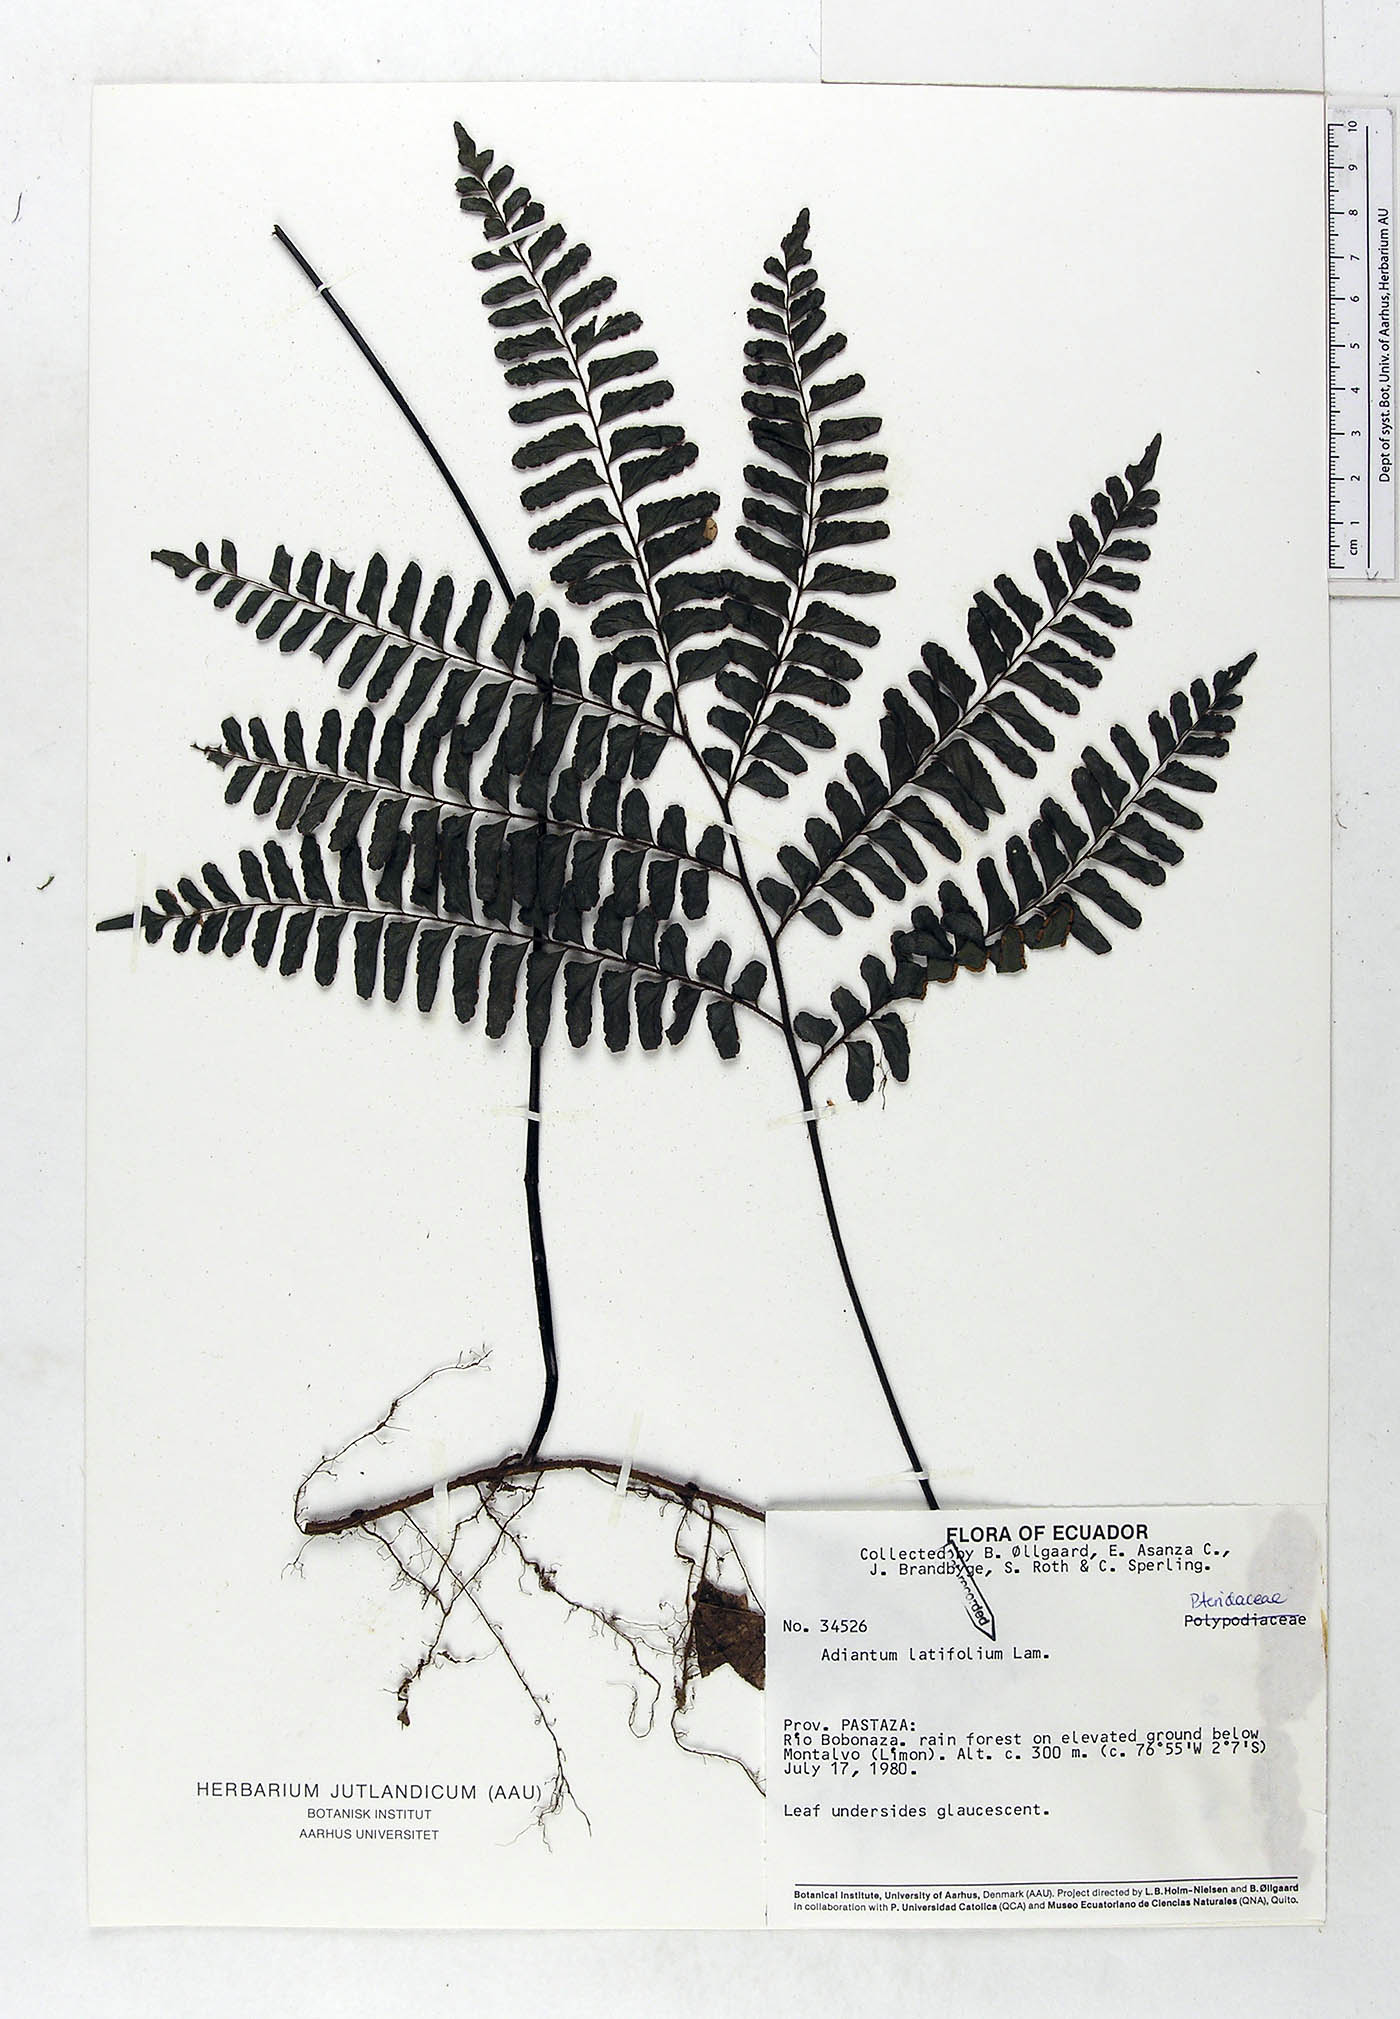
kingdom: Plantae
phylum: Tracheophyta
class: Polypodiopsida
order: Polypodiales
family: Pteridaceae
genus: Adiantum
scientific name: Adiantum latifolium
